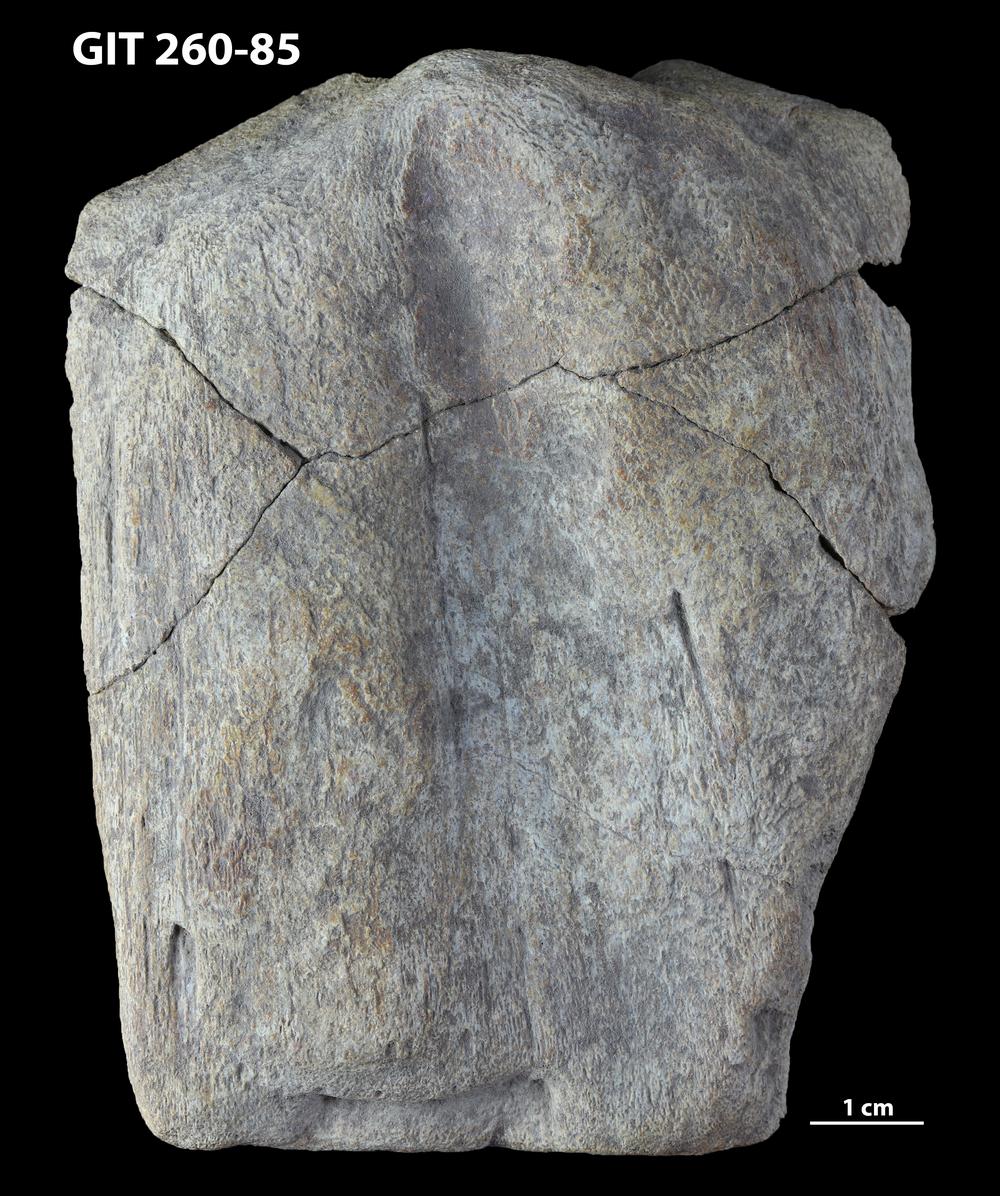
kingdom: Animalia
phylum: Chordata
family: Homostiidae
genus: Homostius
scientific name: Homostius
